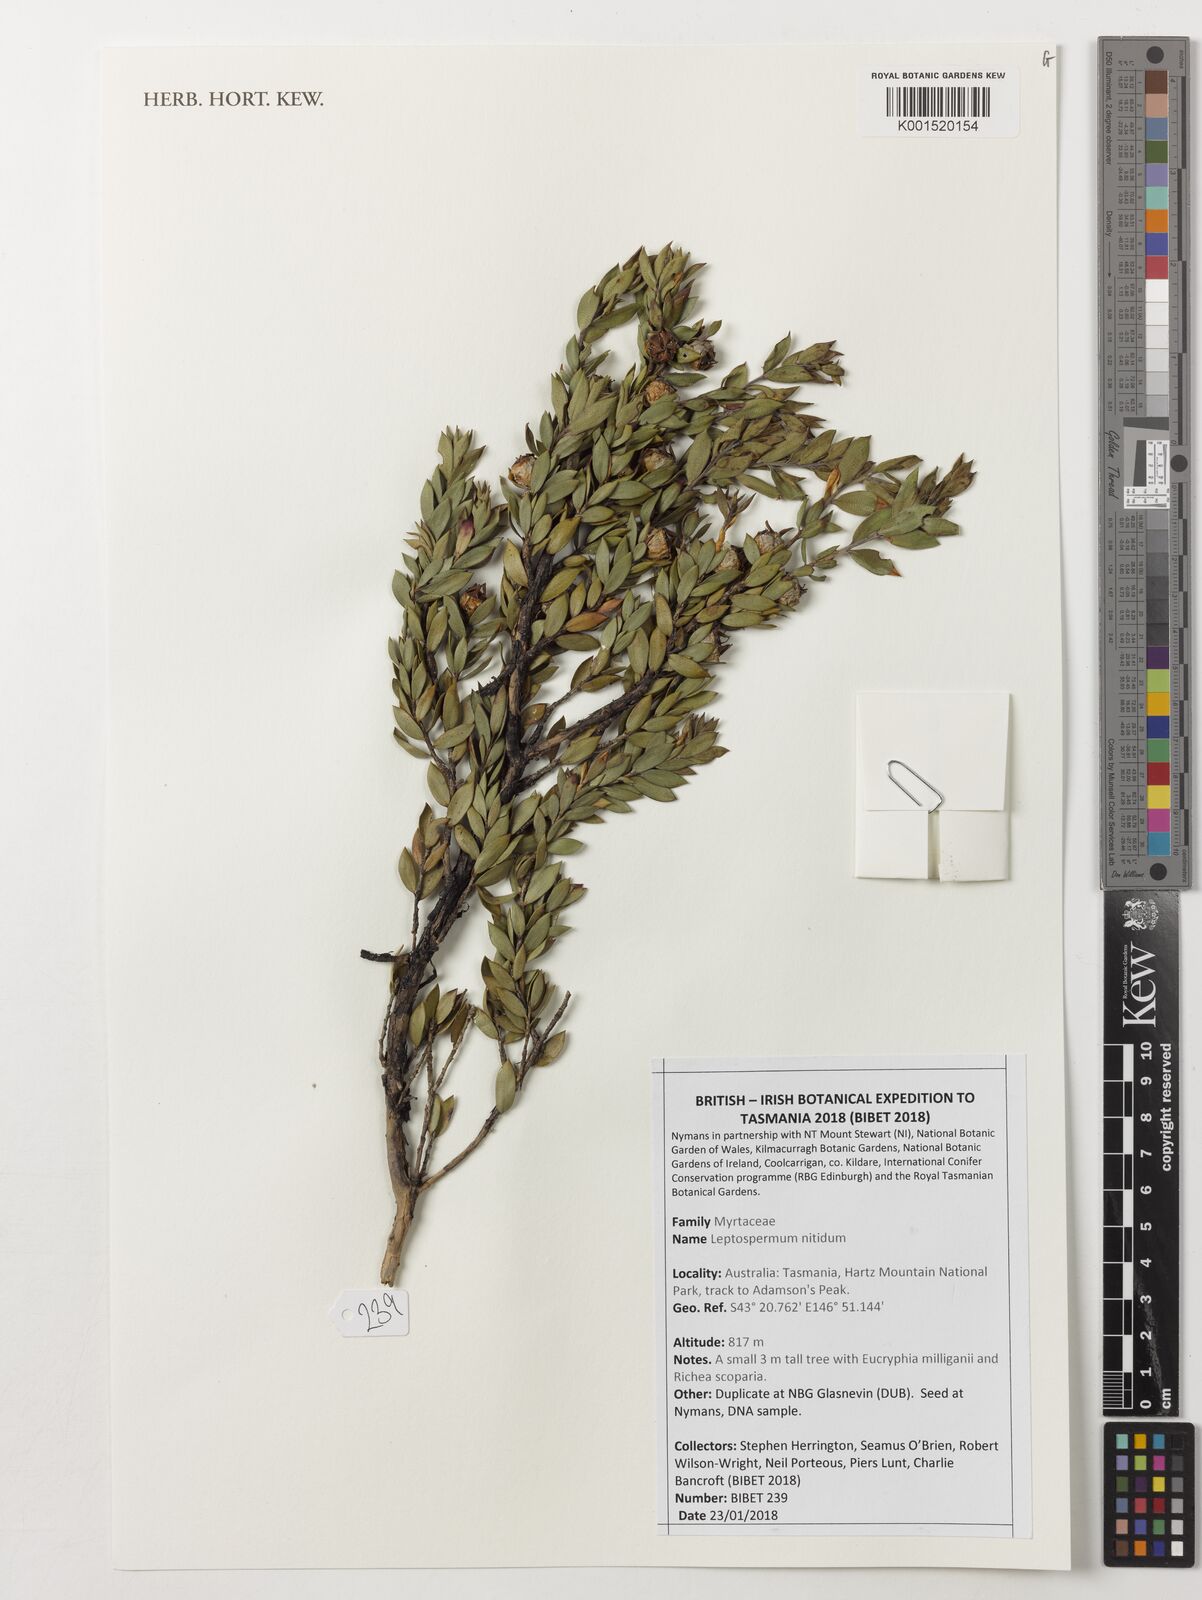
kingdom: Plantae
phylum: Tracheophyta
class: Magnoliopsida
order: Myrtales
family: Myrtaceae
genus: Leptospermum
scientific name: Leptospermum nitidum
